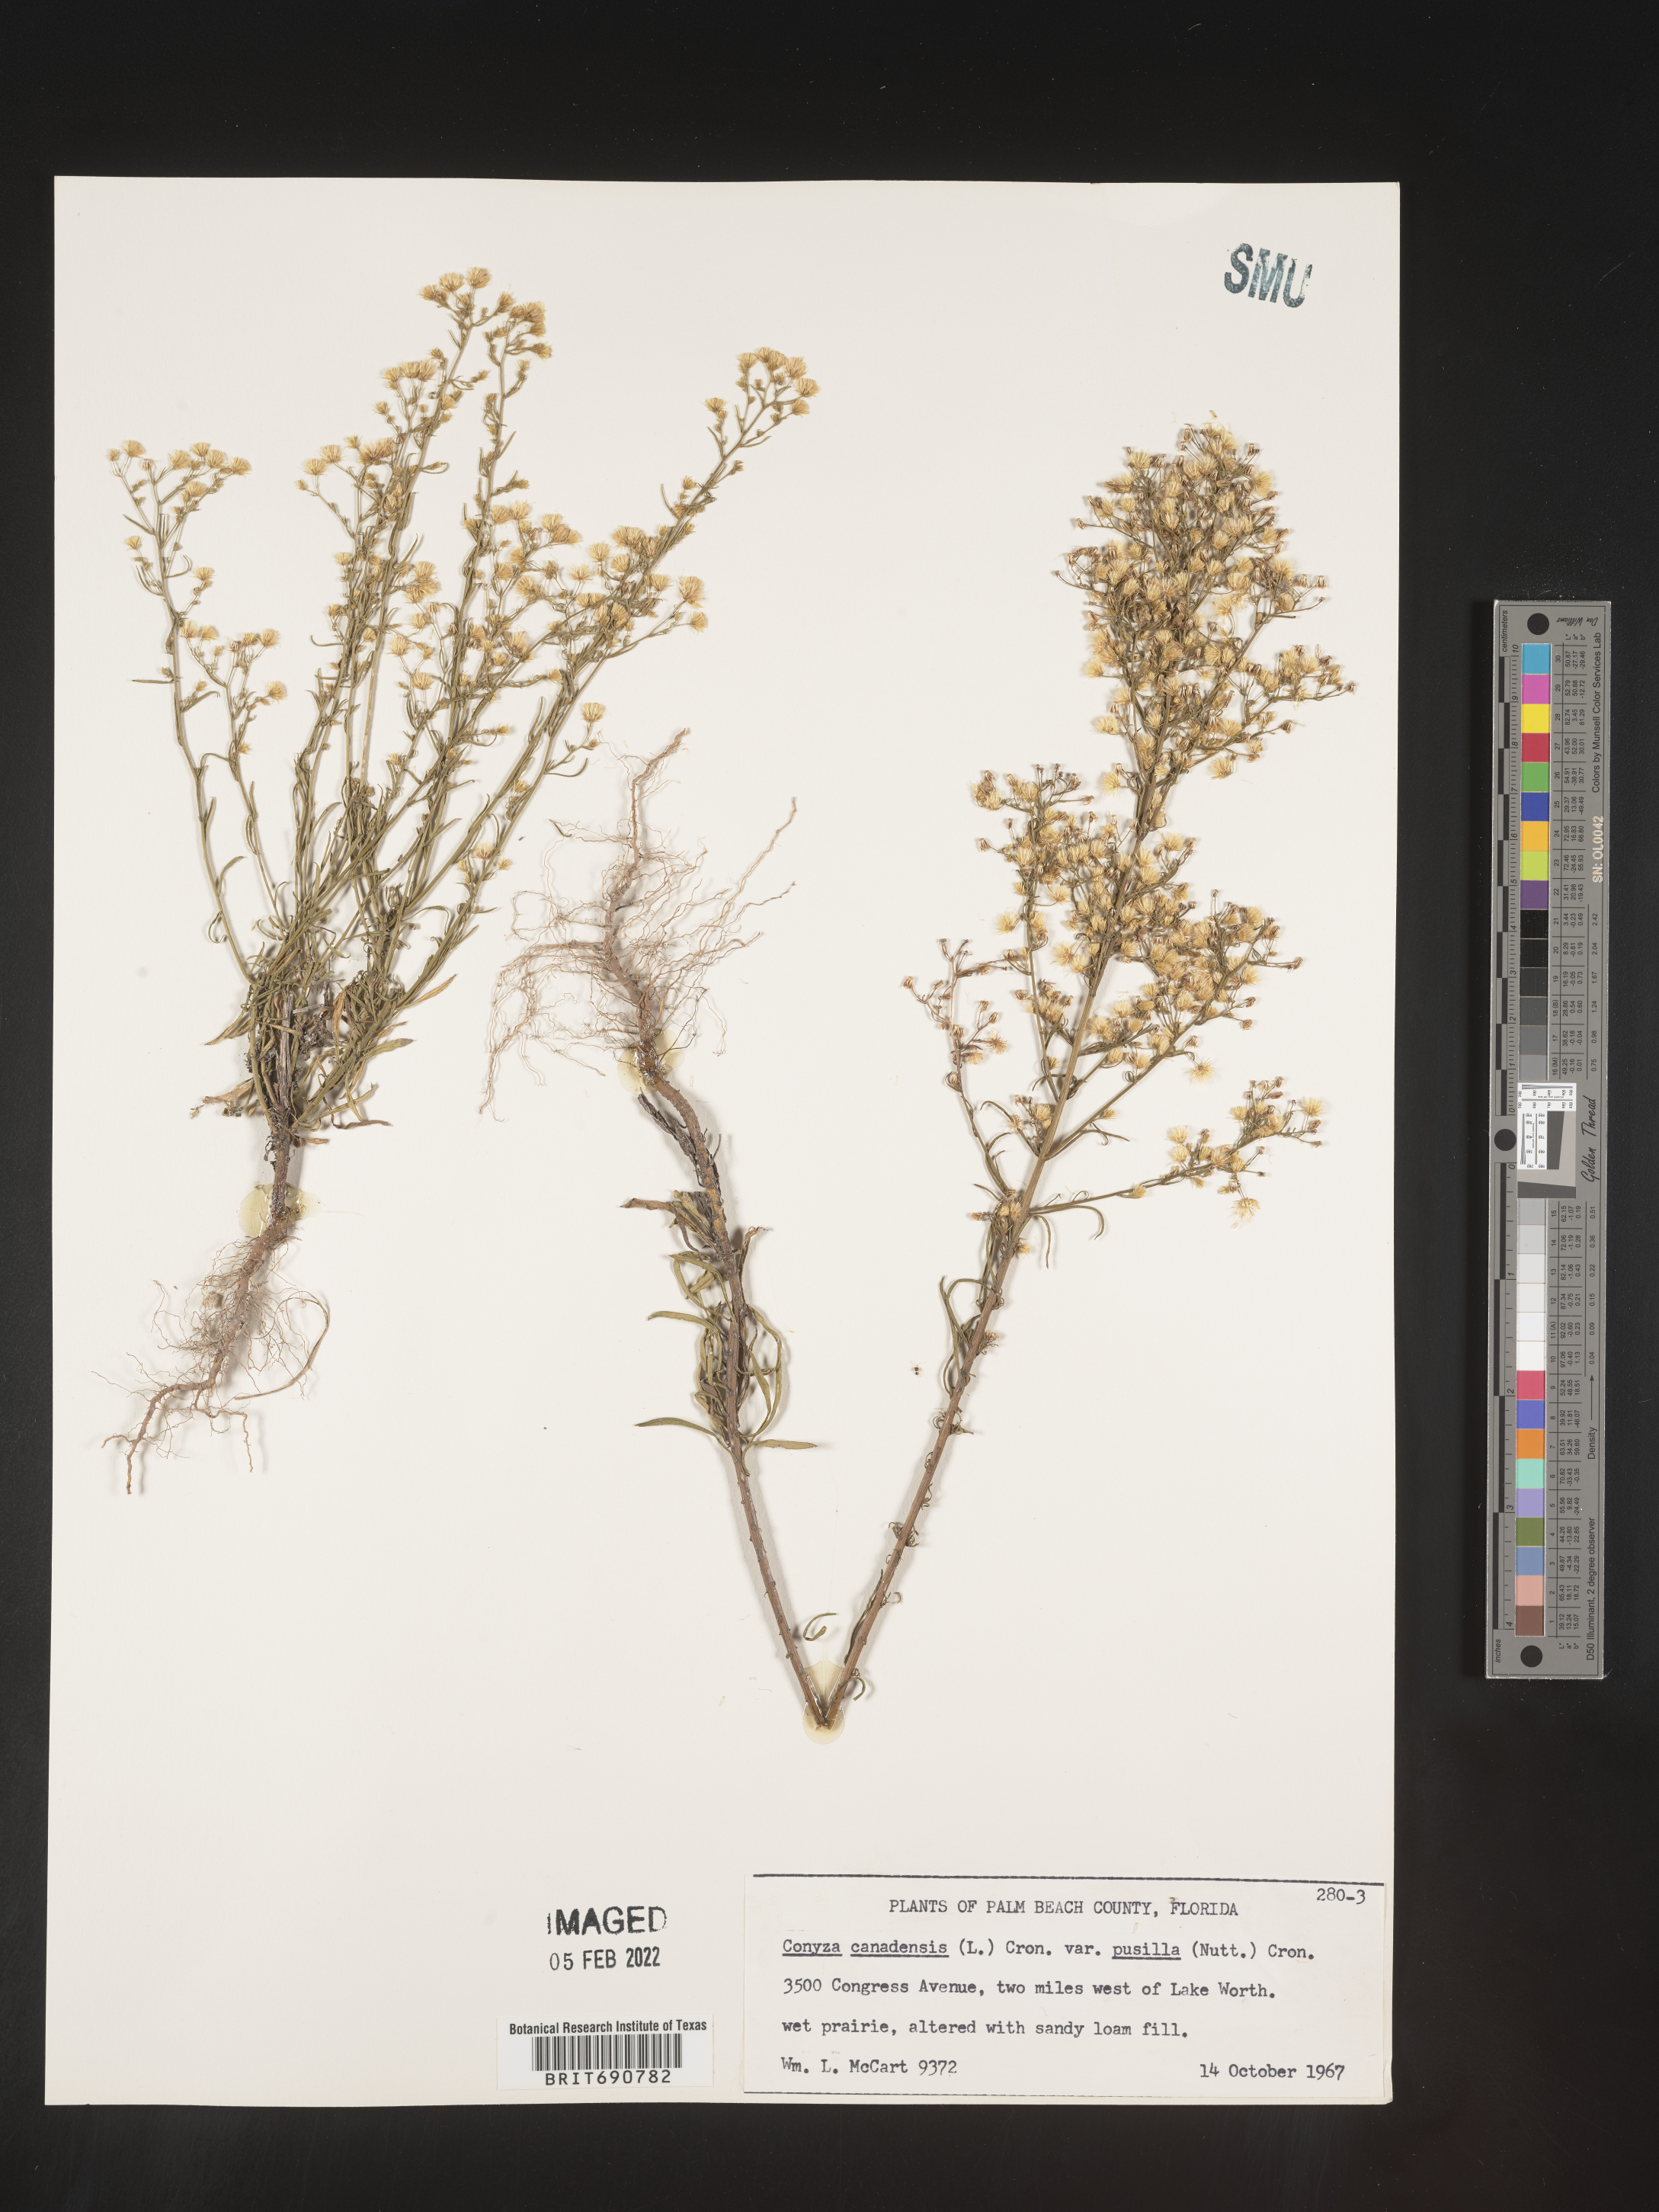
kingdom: Plantae
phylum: Tracheophyta
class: Magnoliopsida
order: Asterales
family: Asteraceae
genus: Erigeron
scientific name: Erigeron canadensis
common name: Canadian fleabane
